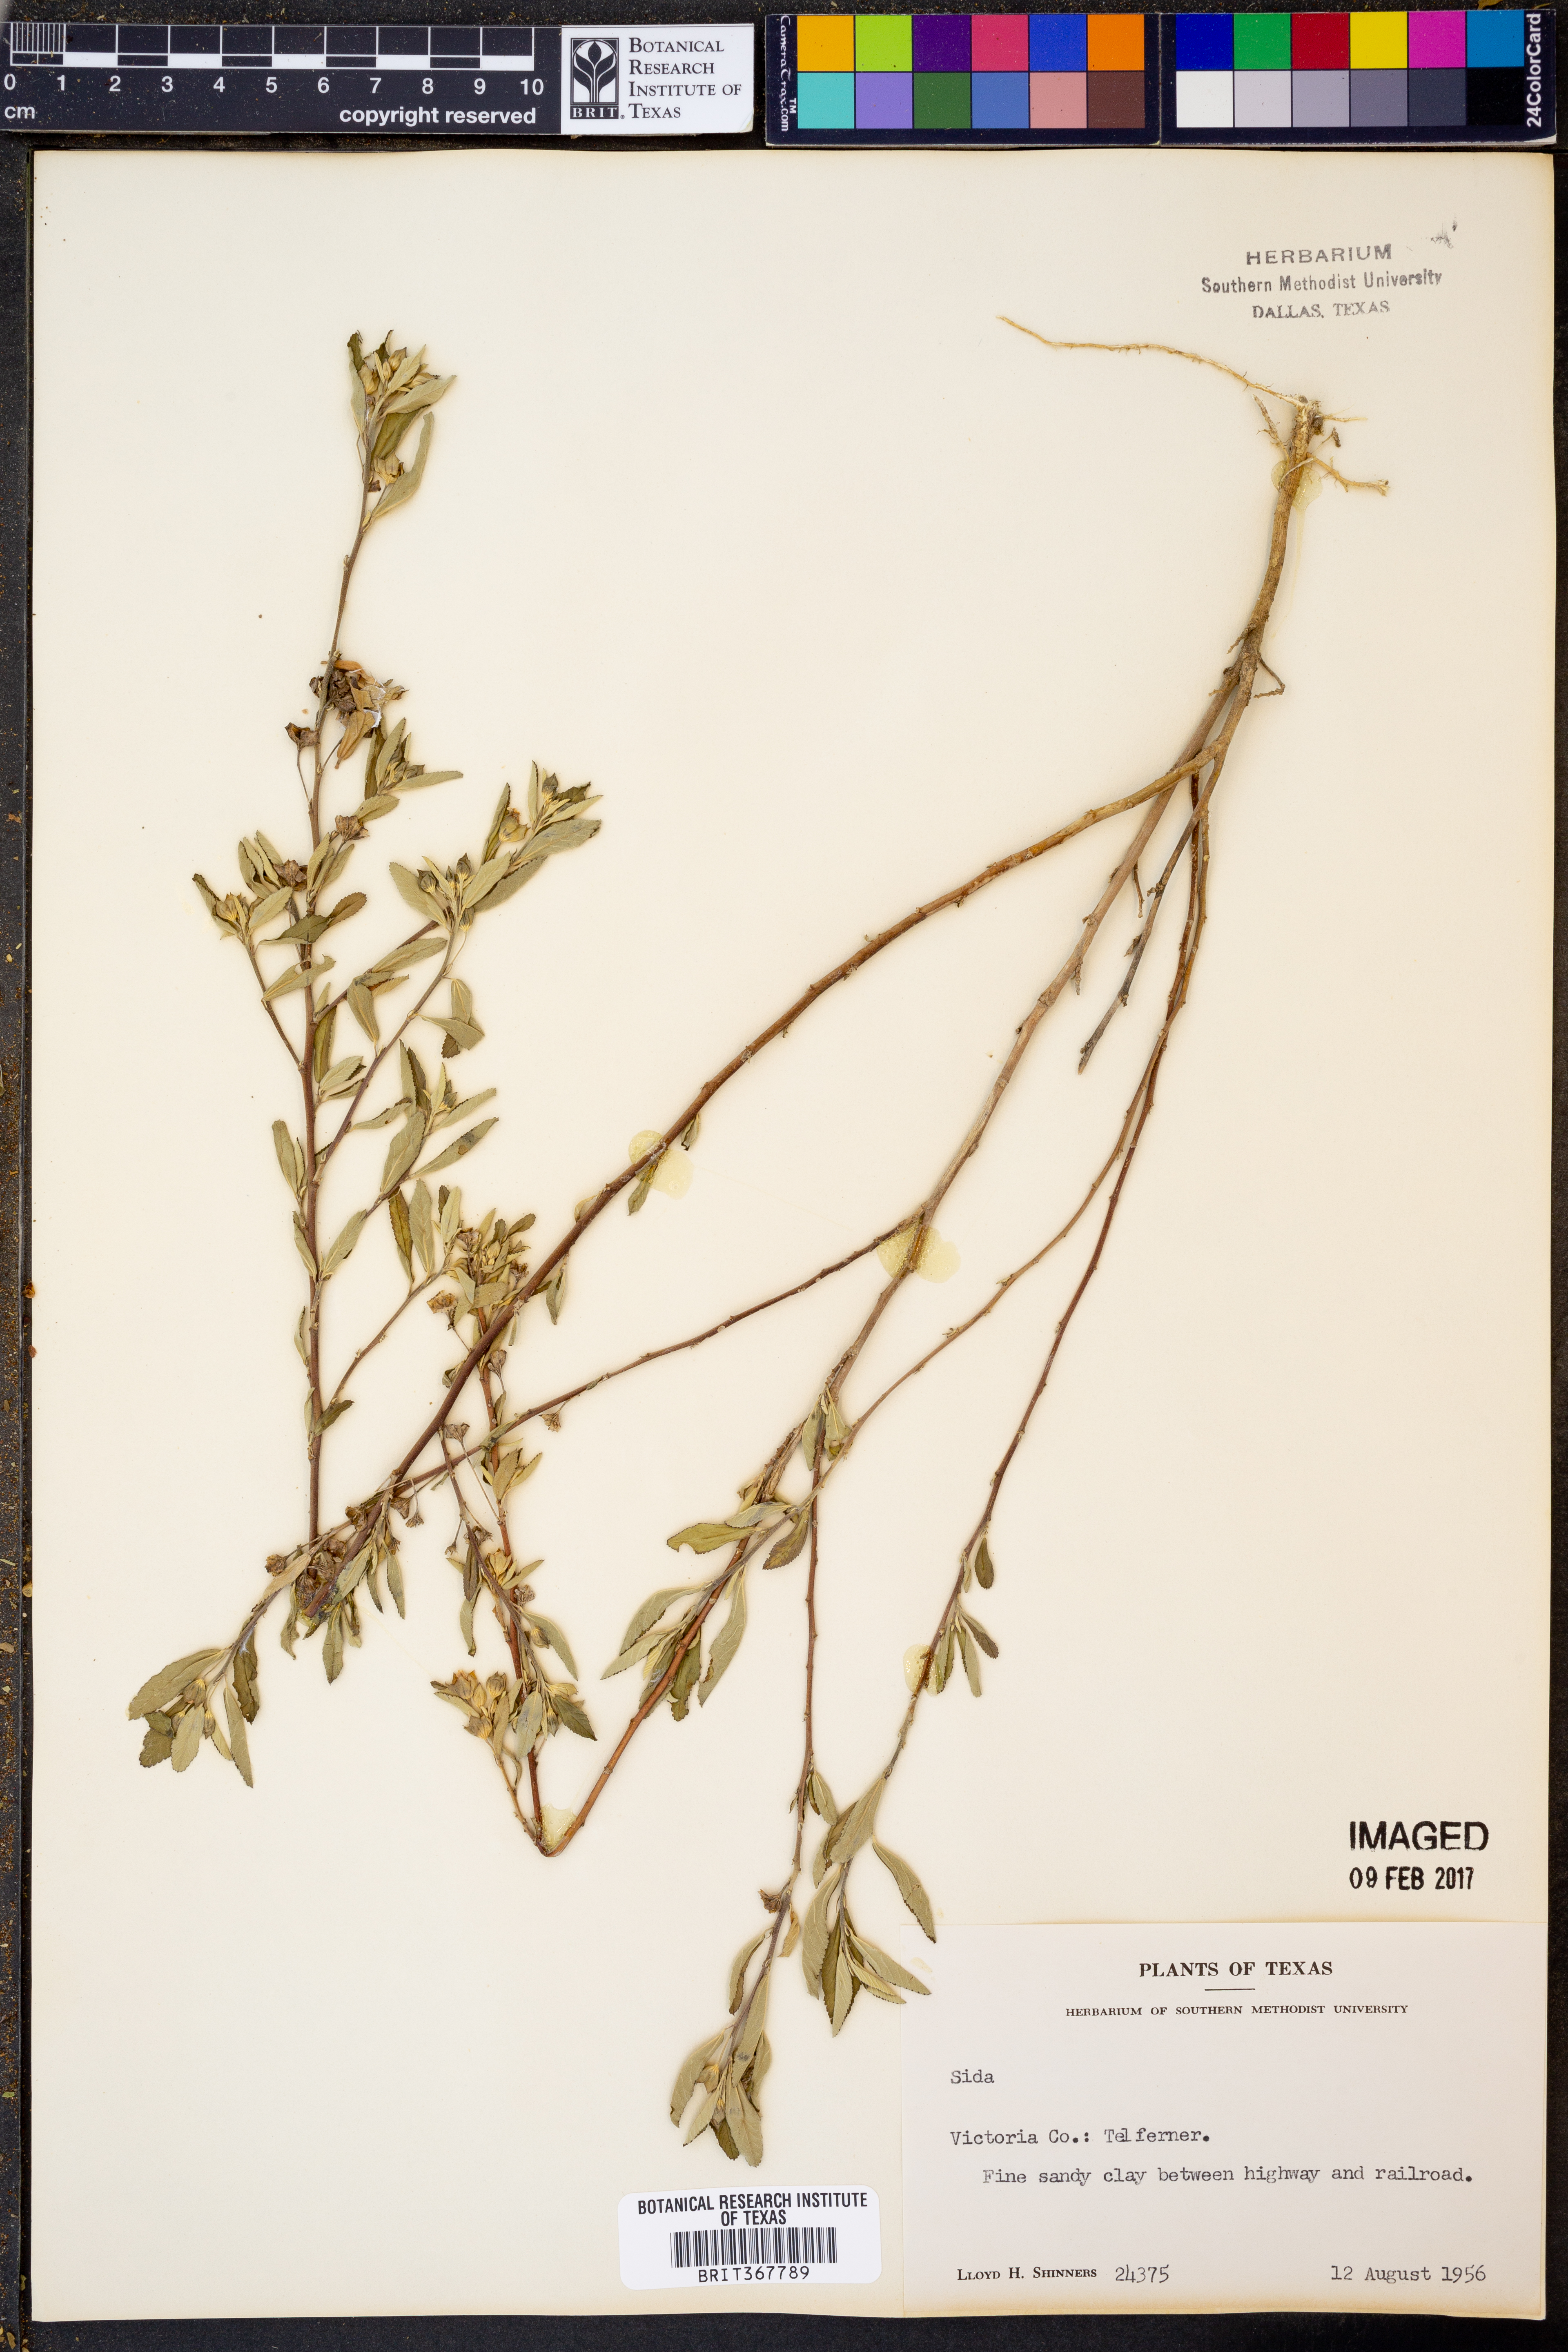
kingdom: Plantae
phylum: Tracheophyta
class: Magnoliopsida
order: Malvales
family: Malvaceae
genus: Sida
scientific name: Sida
